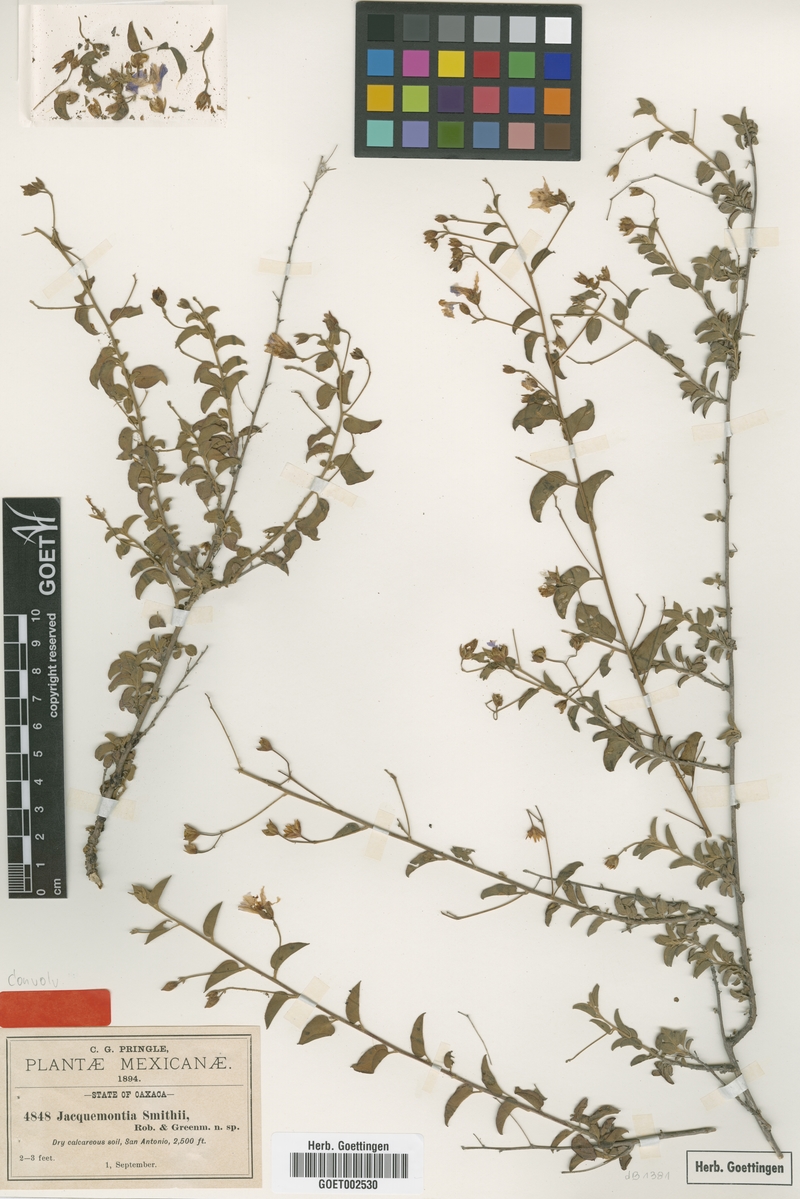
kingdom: Plantae
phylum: Tracheophyta
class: Magnoliopsida
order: Solanales
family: Convolvulaceae
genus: Jacquemontia
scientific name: Jacquemontia smithii
